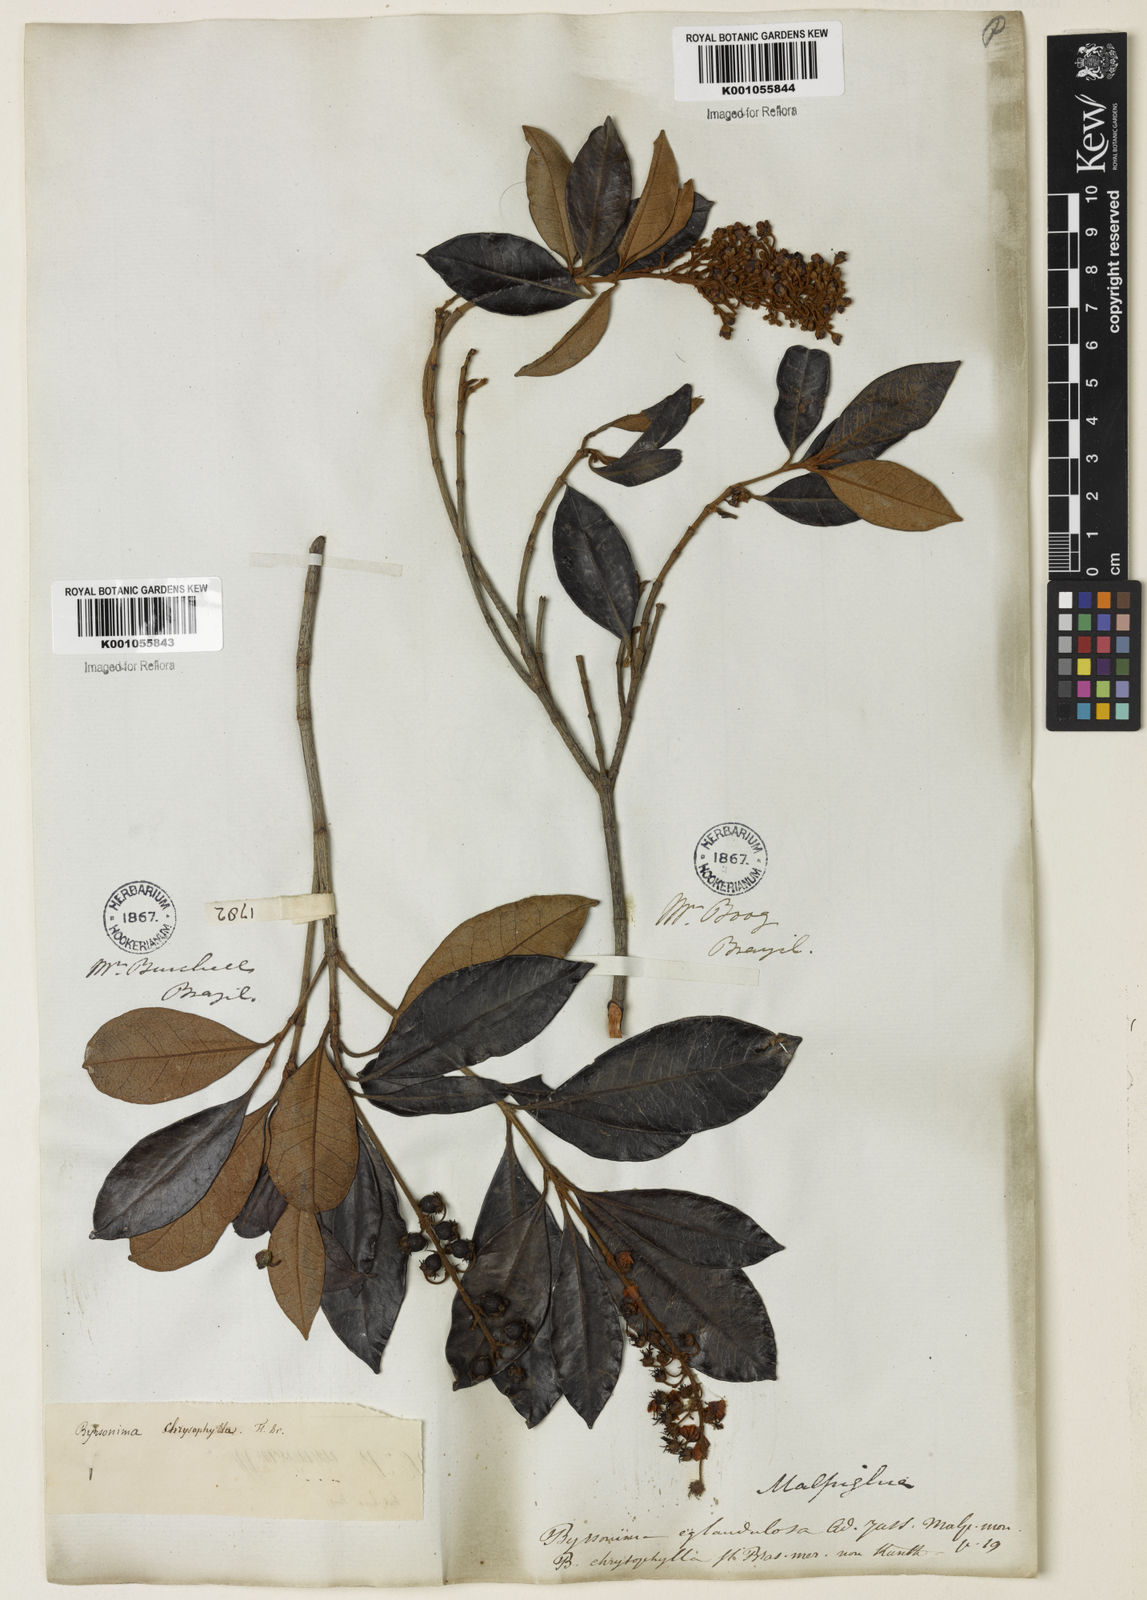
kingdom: Plantae
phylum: Tracheophyta
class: Magnoliopsida
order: Malpighiales
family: Malpighiaceae
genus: Byrsonima
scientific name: Byrsonima sericea
